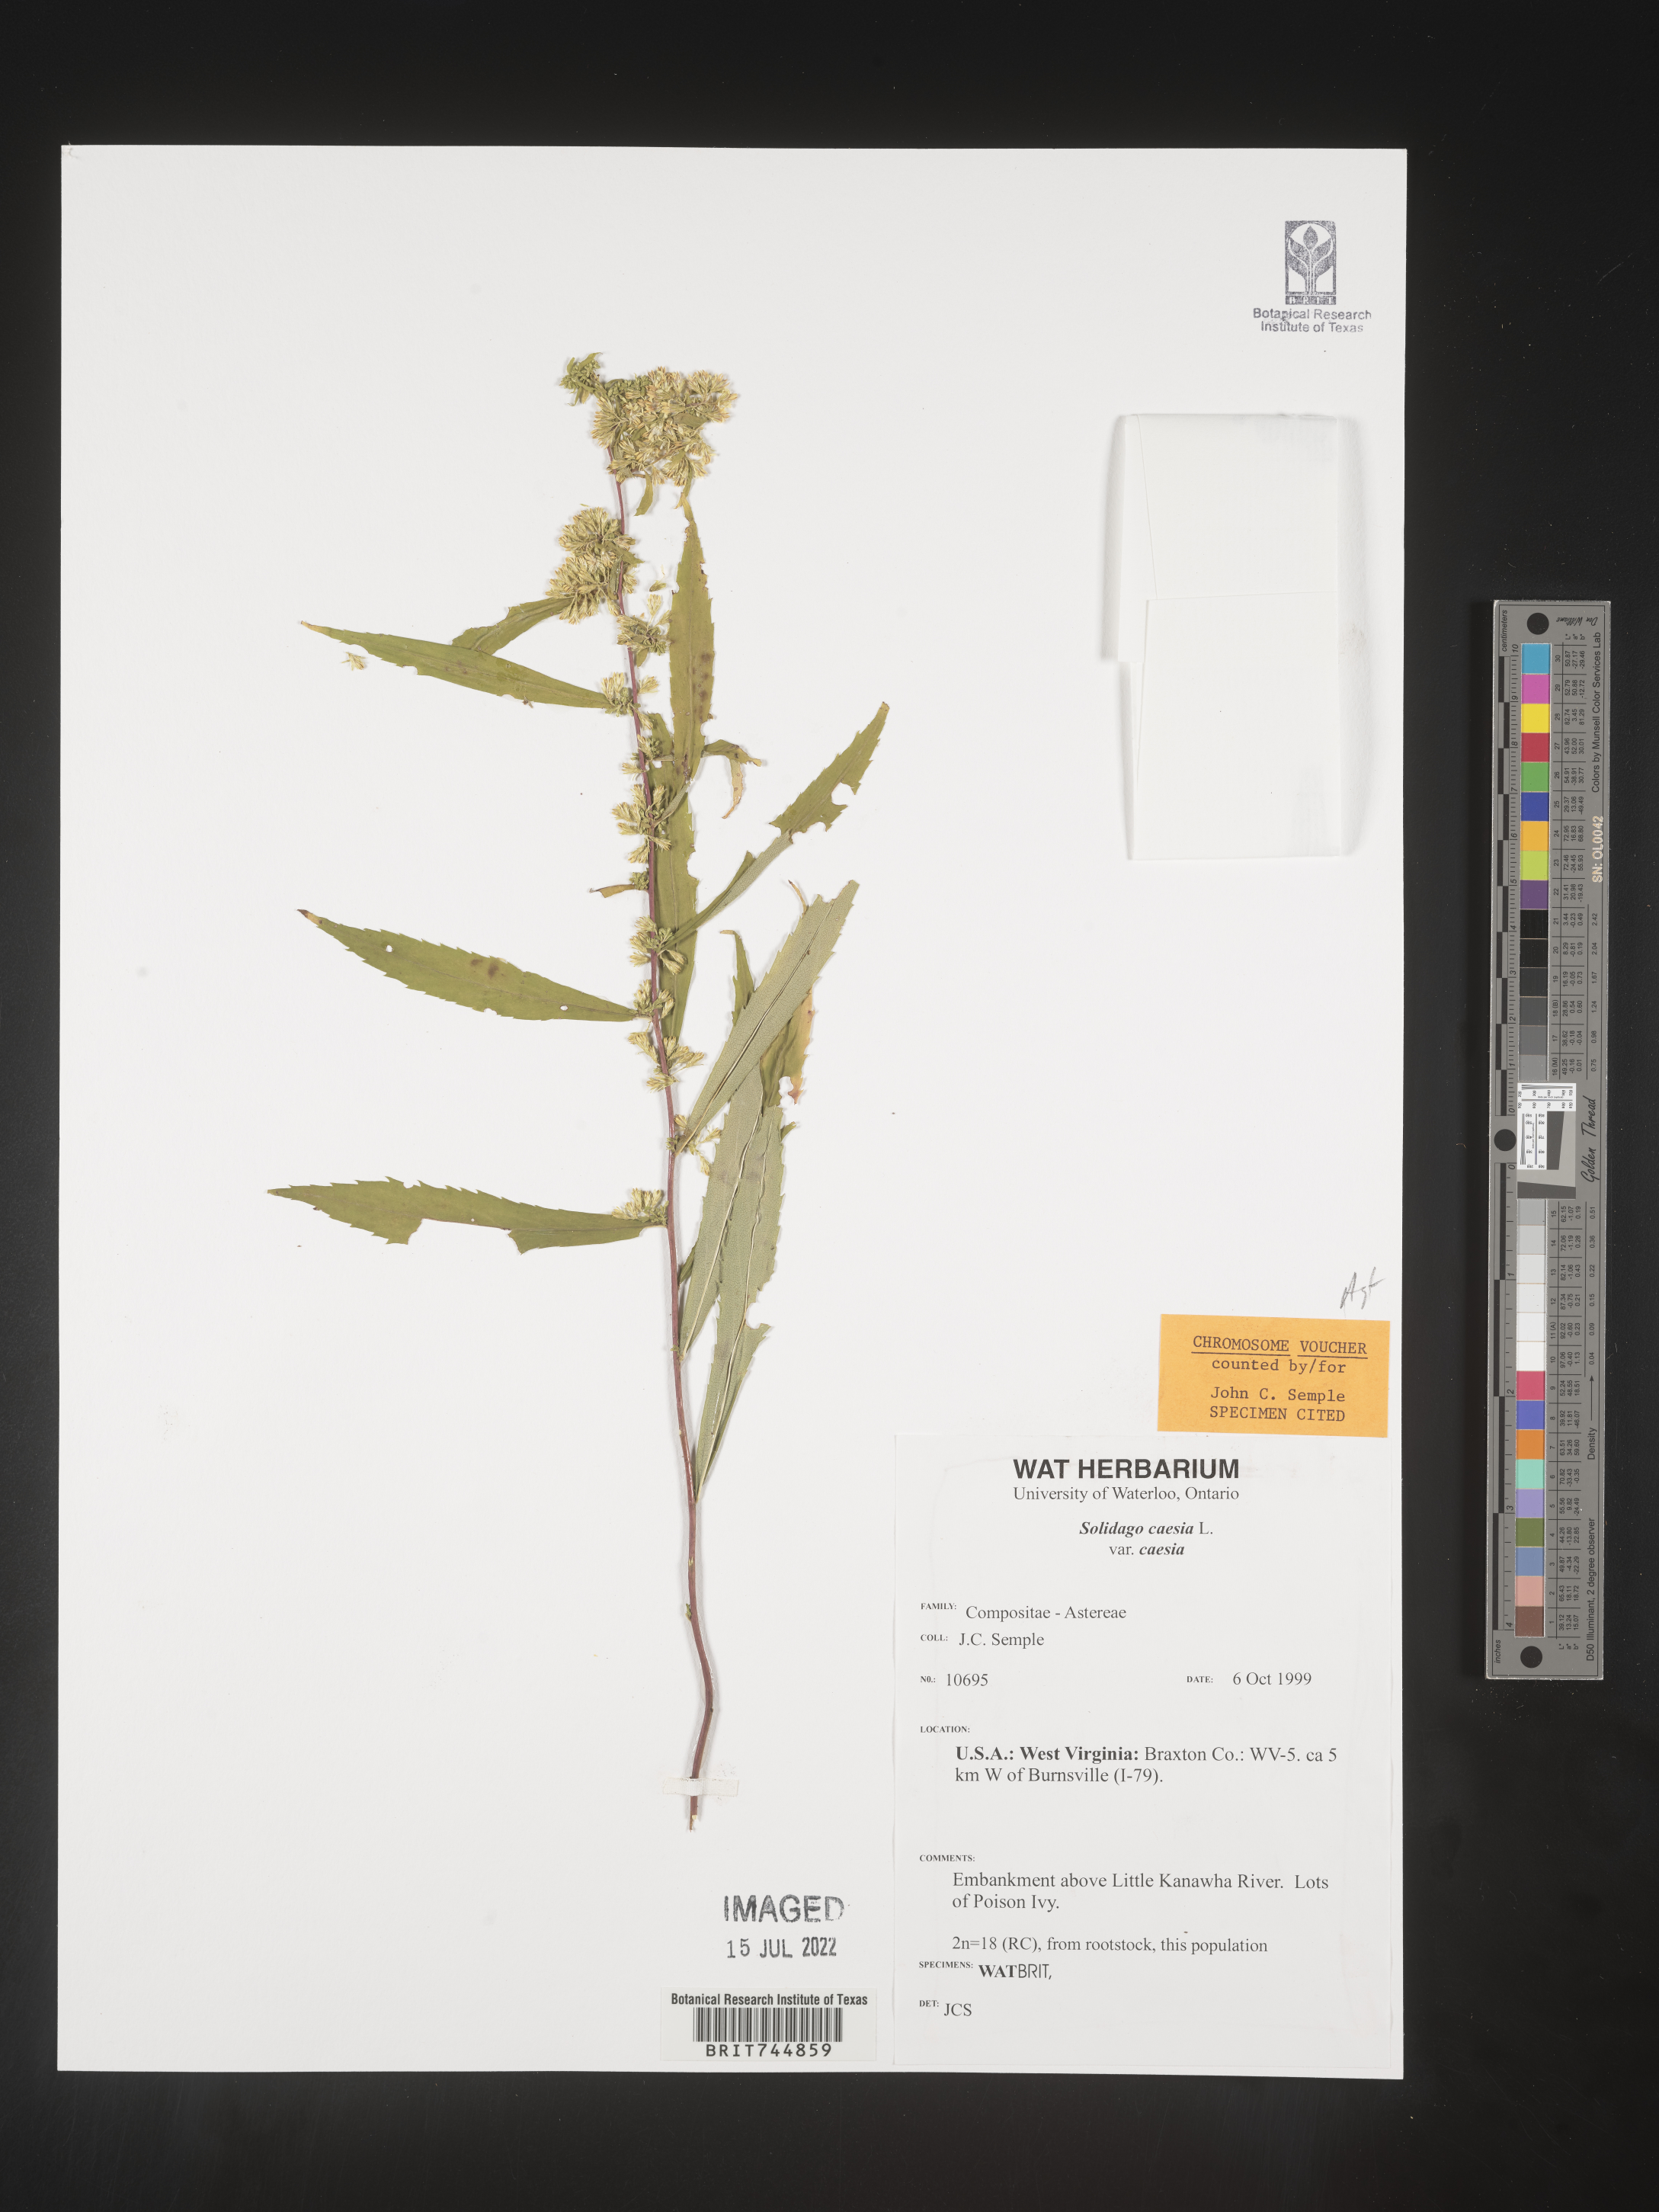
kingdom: Plantae
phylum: Tracheophyta
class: Magnoliopsida
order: Asterales
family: Asteraceae
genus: Solidago
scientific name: Solidago caesia
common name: Woodland goldenrod
